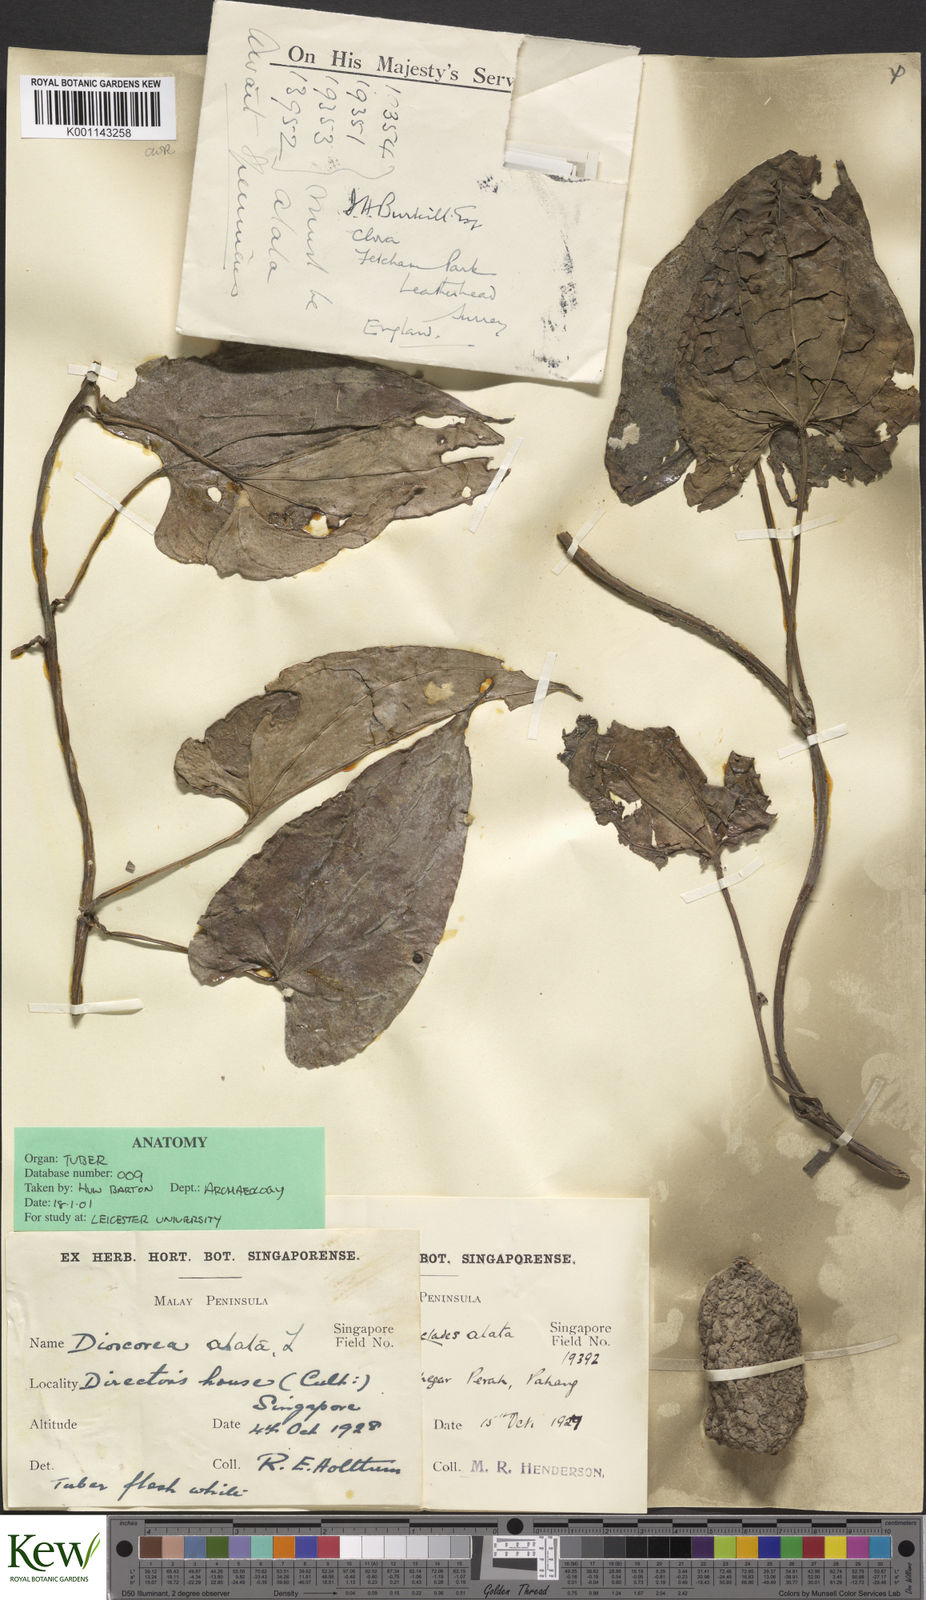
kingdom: Plantae
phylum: Tracheophyta
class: Liliopsida
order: Dioscoreales
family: Dioscoreaceae
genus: Dioscorea
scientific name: Dioscorea alata
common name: Water yam
